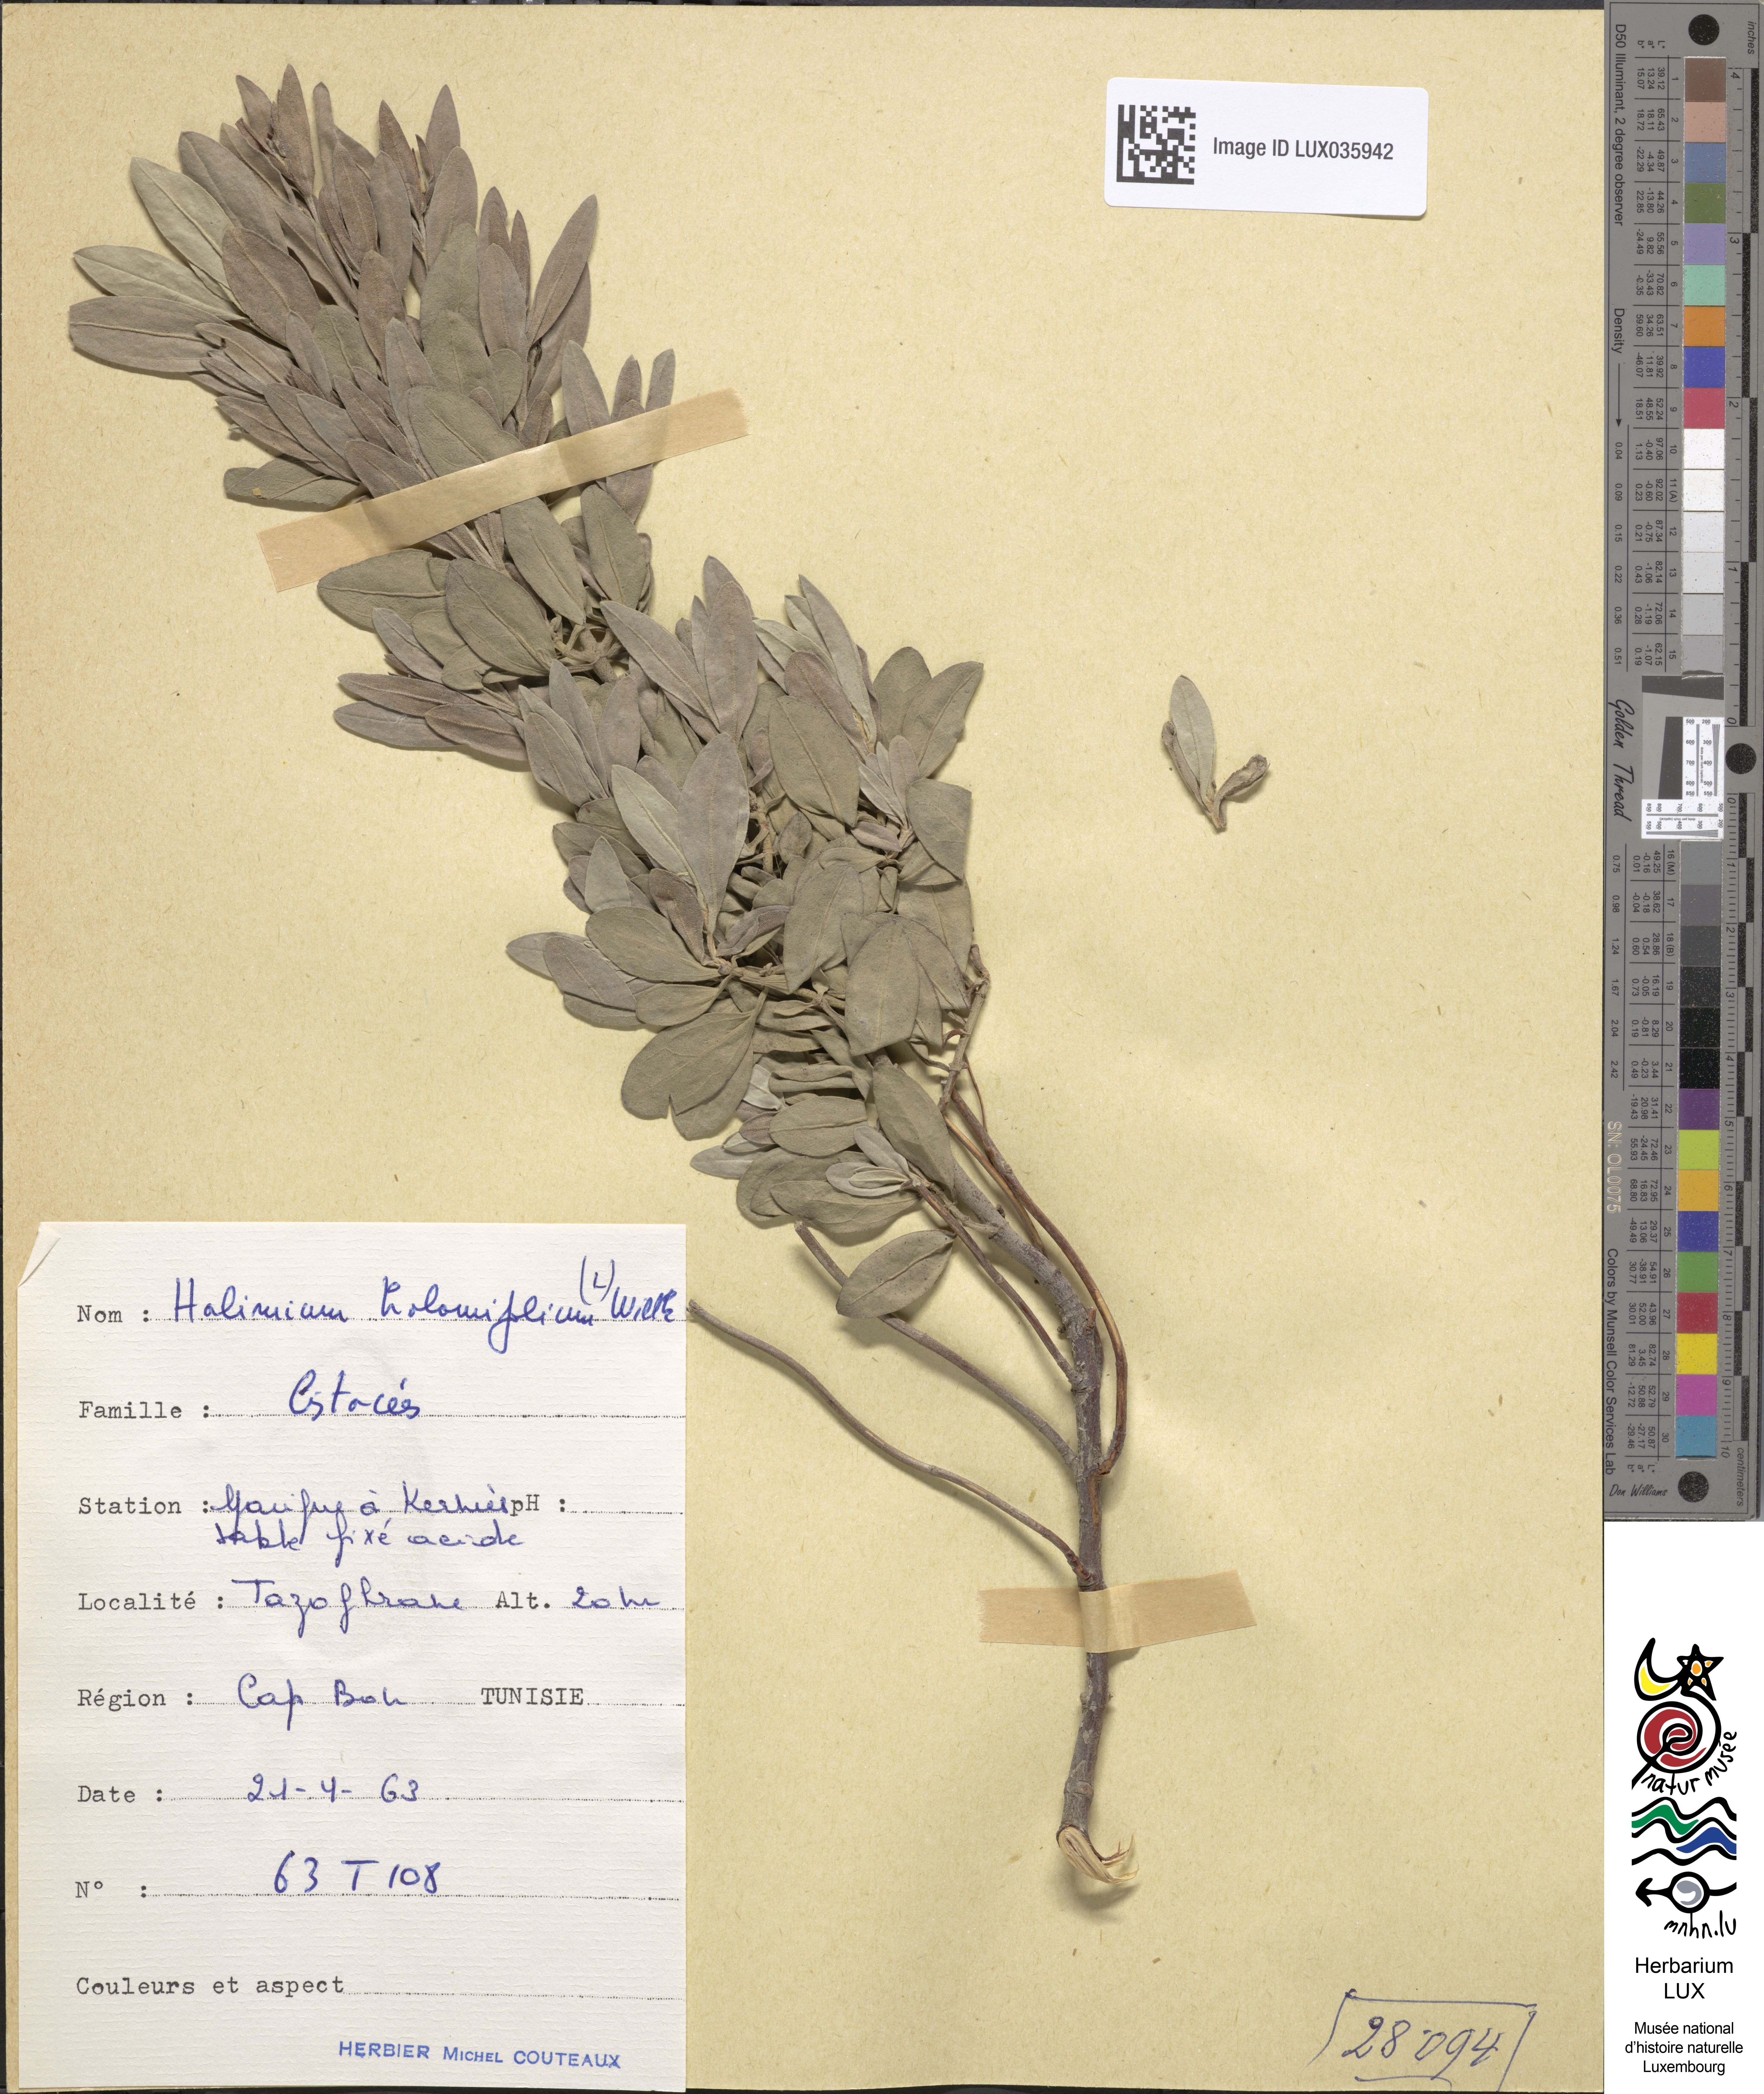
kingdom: Plantae
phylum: Tracheophyta
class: Magnoliopsida
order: Malvales
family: Cistaceae
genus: Halimium
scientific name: Halimium halimifolium
